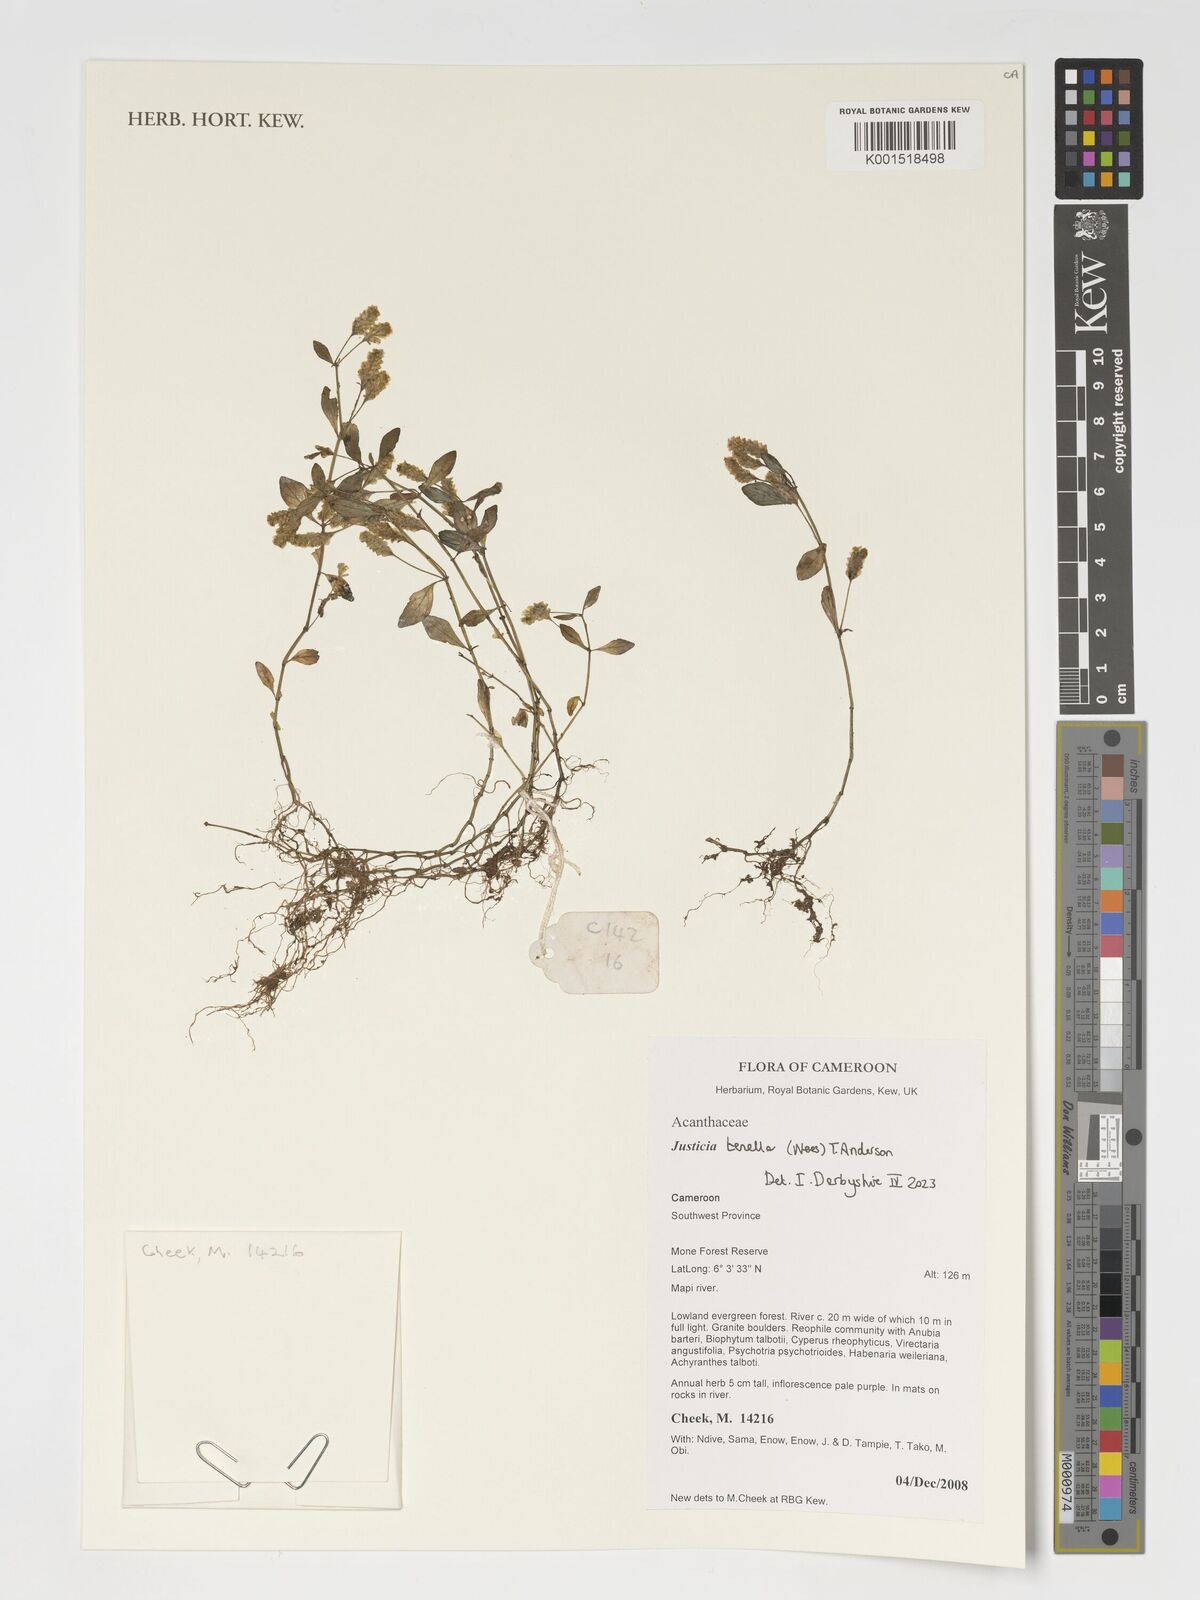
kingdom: Plantae
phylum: Tracheophyta
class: Magnoliopsida
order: Lamiales
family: Acanthaceae
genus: Anisostachya
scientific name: Anisostachya tenella
